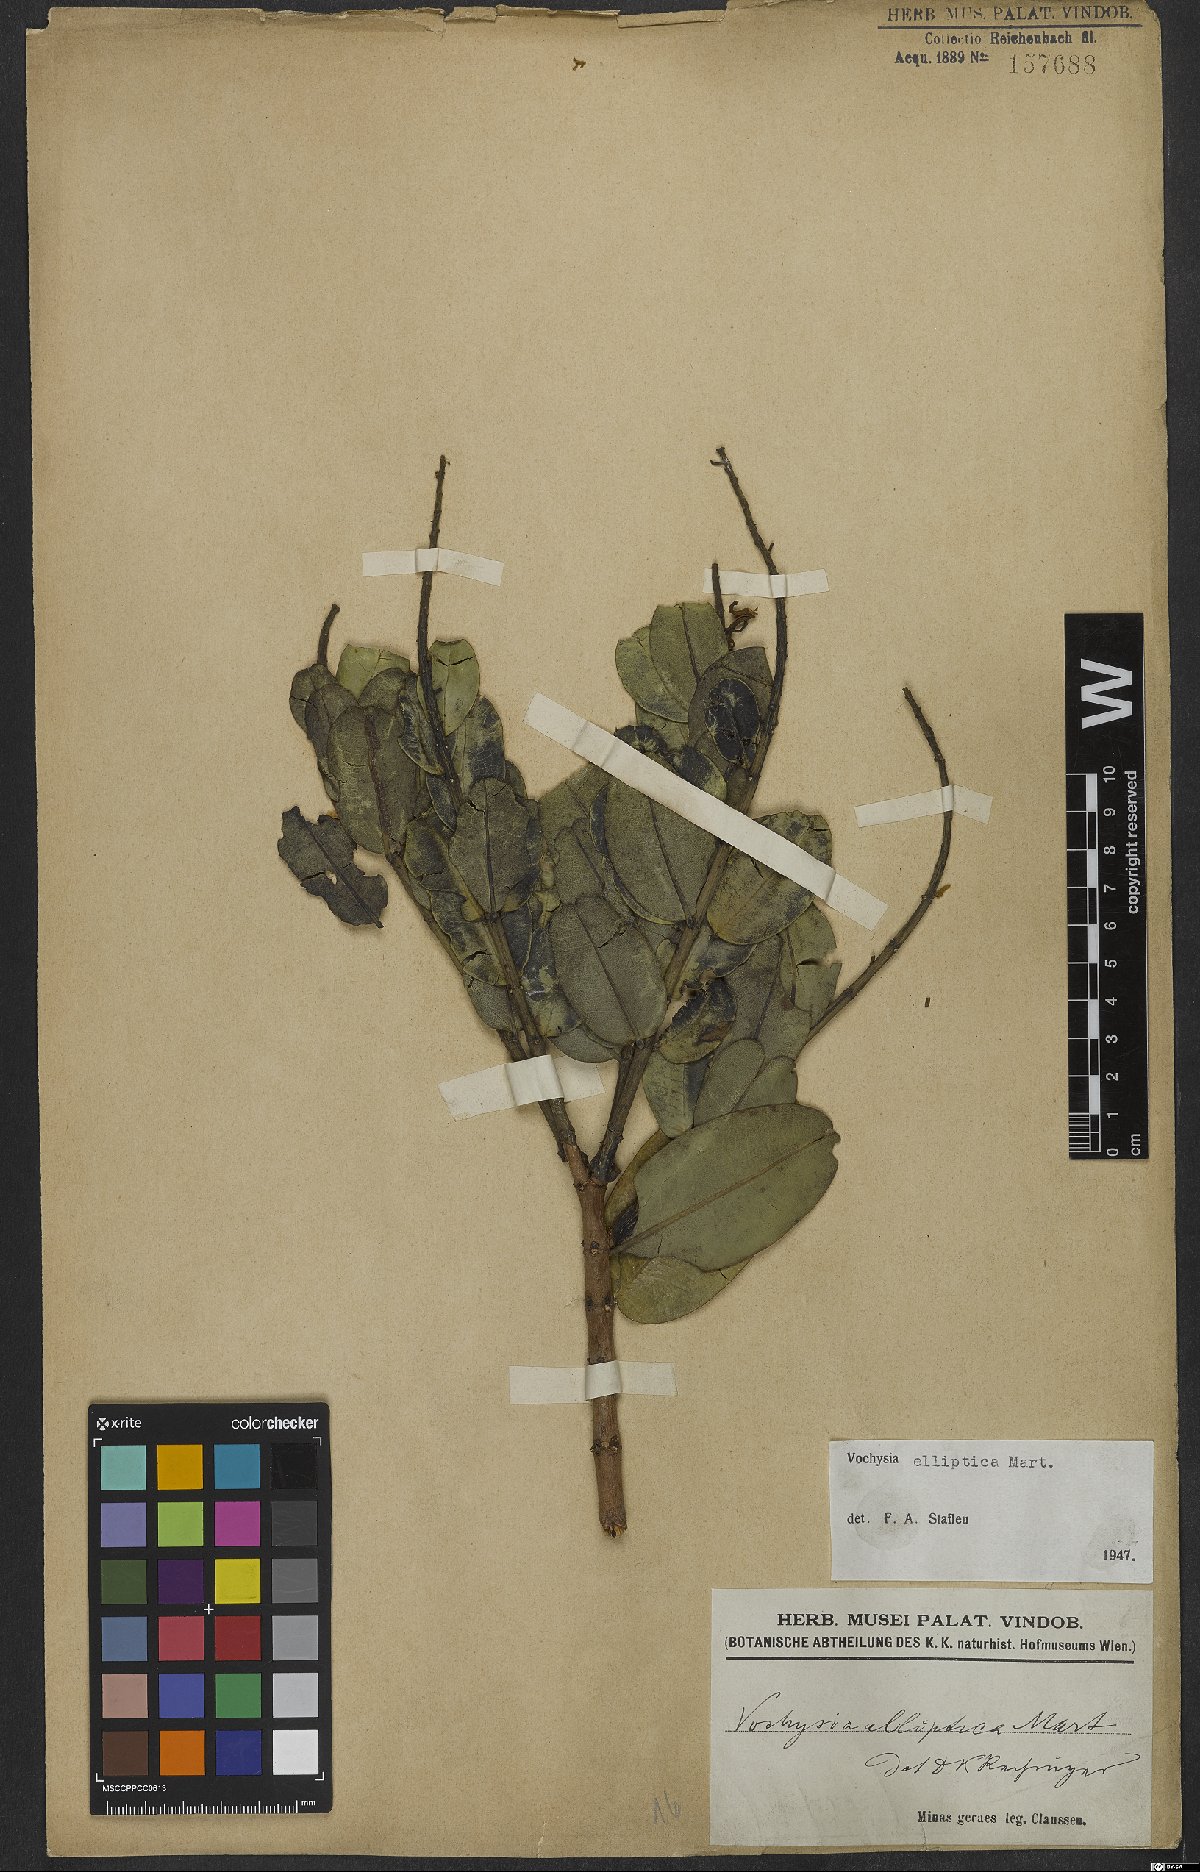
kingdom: Plantae
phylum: Tracheophyta
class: Magnoliopsida
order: Myrtales
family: Vochysiaceae
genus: Vochysia
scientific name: Vochysia elliptica
